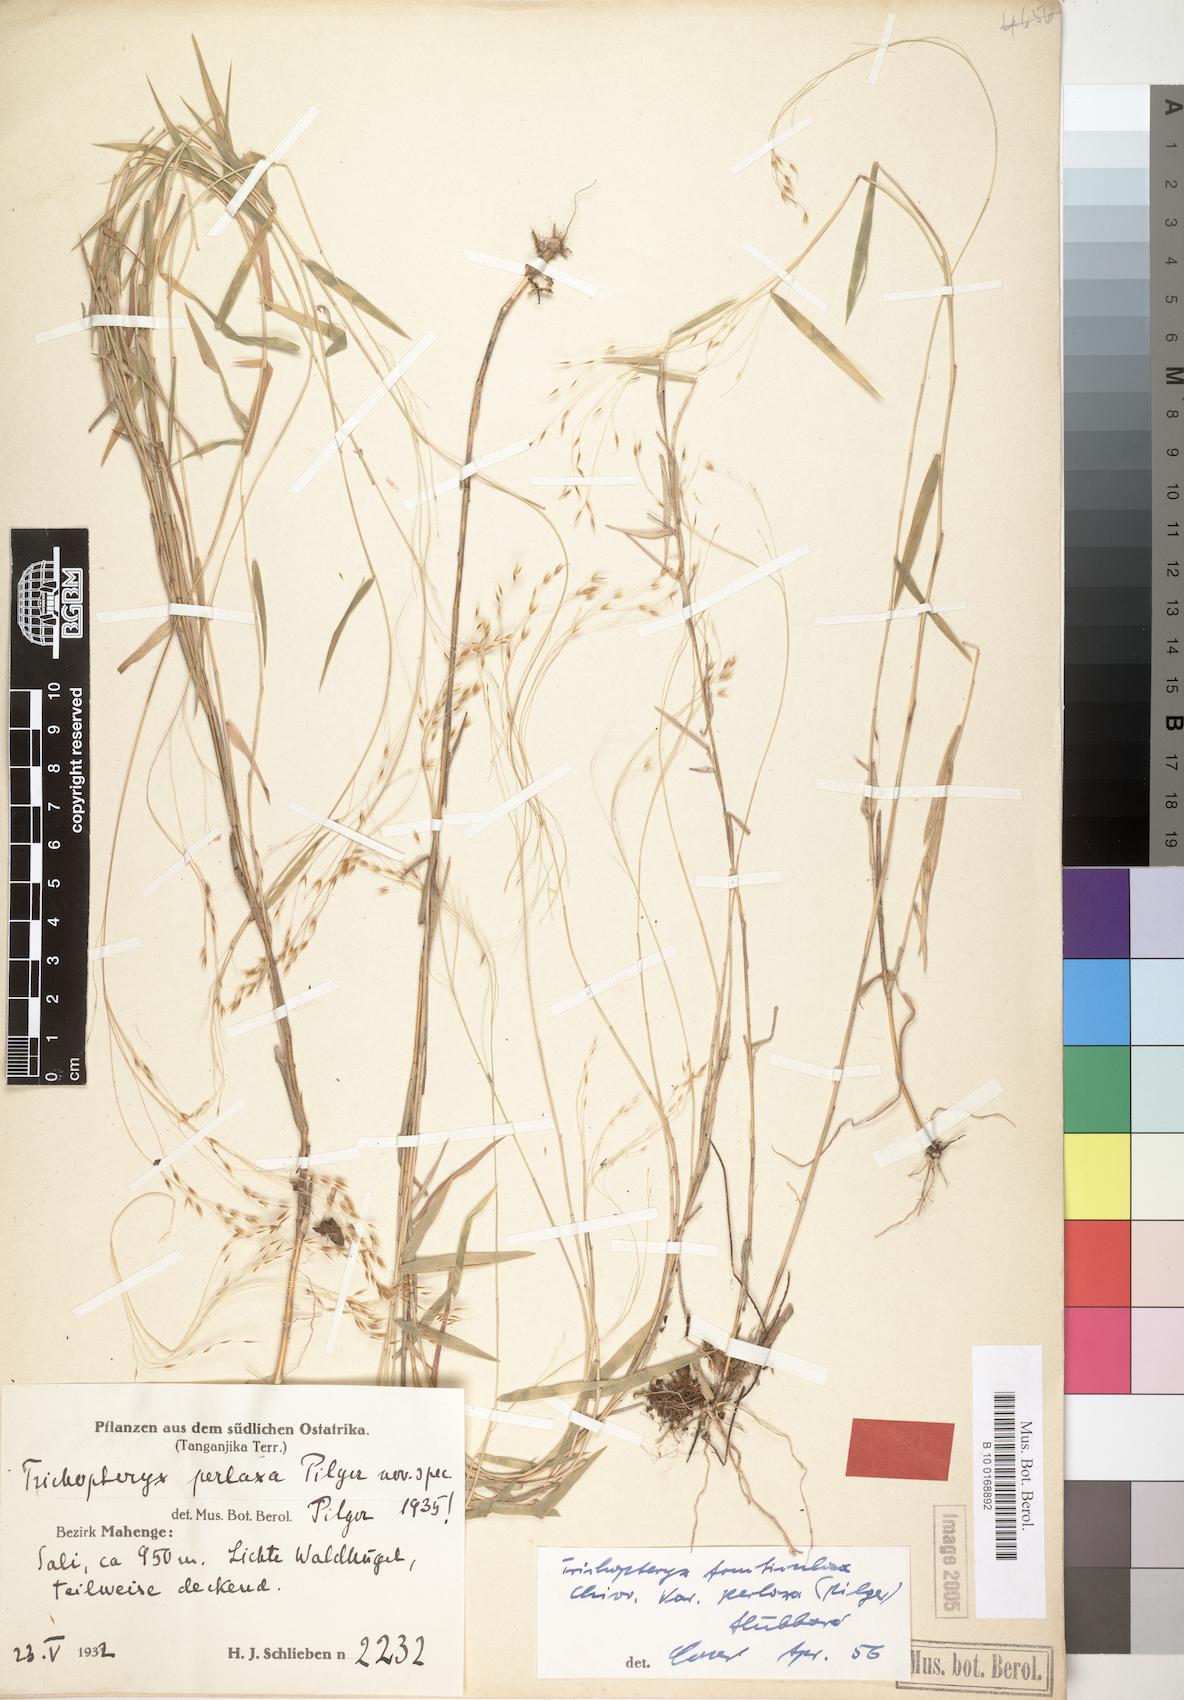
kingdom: Plantae
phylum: Tracheophyta
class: Liliopsida
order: Poales
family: Poaceae
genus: Trichopteryx
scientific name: Trichopteryx fruticulosa
